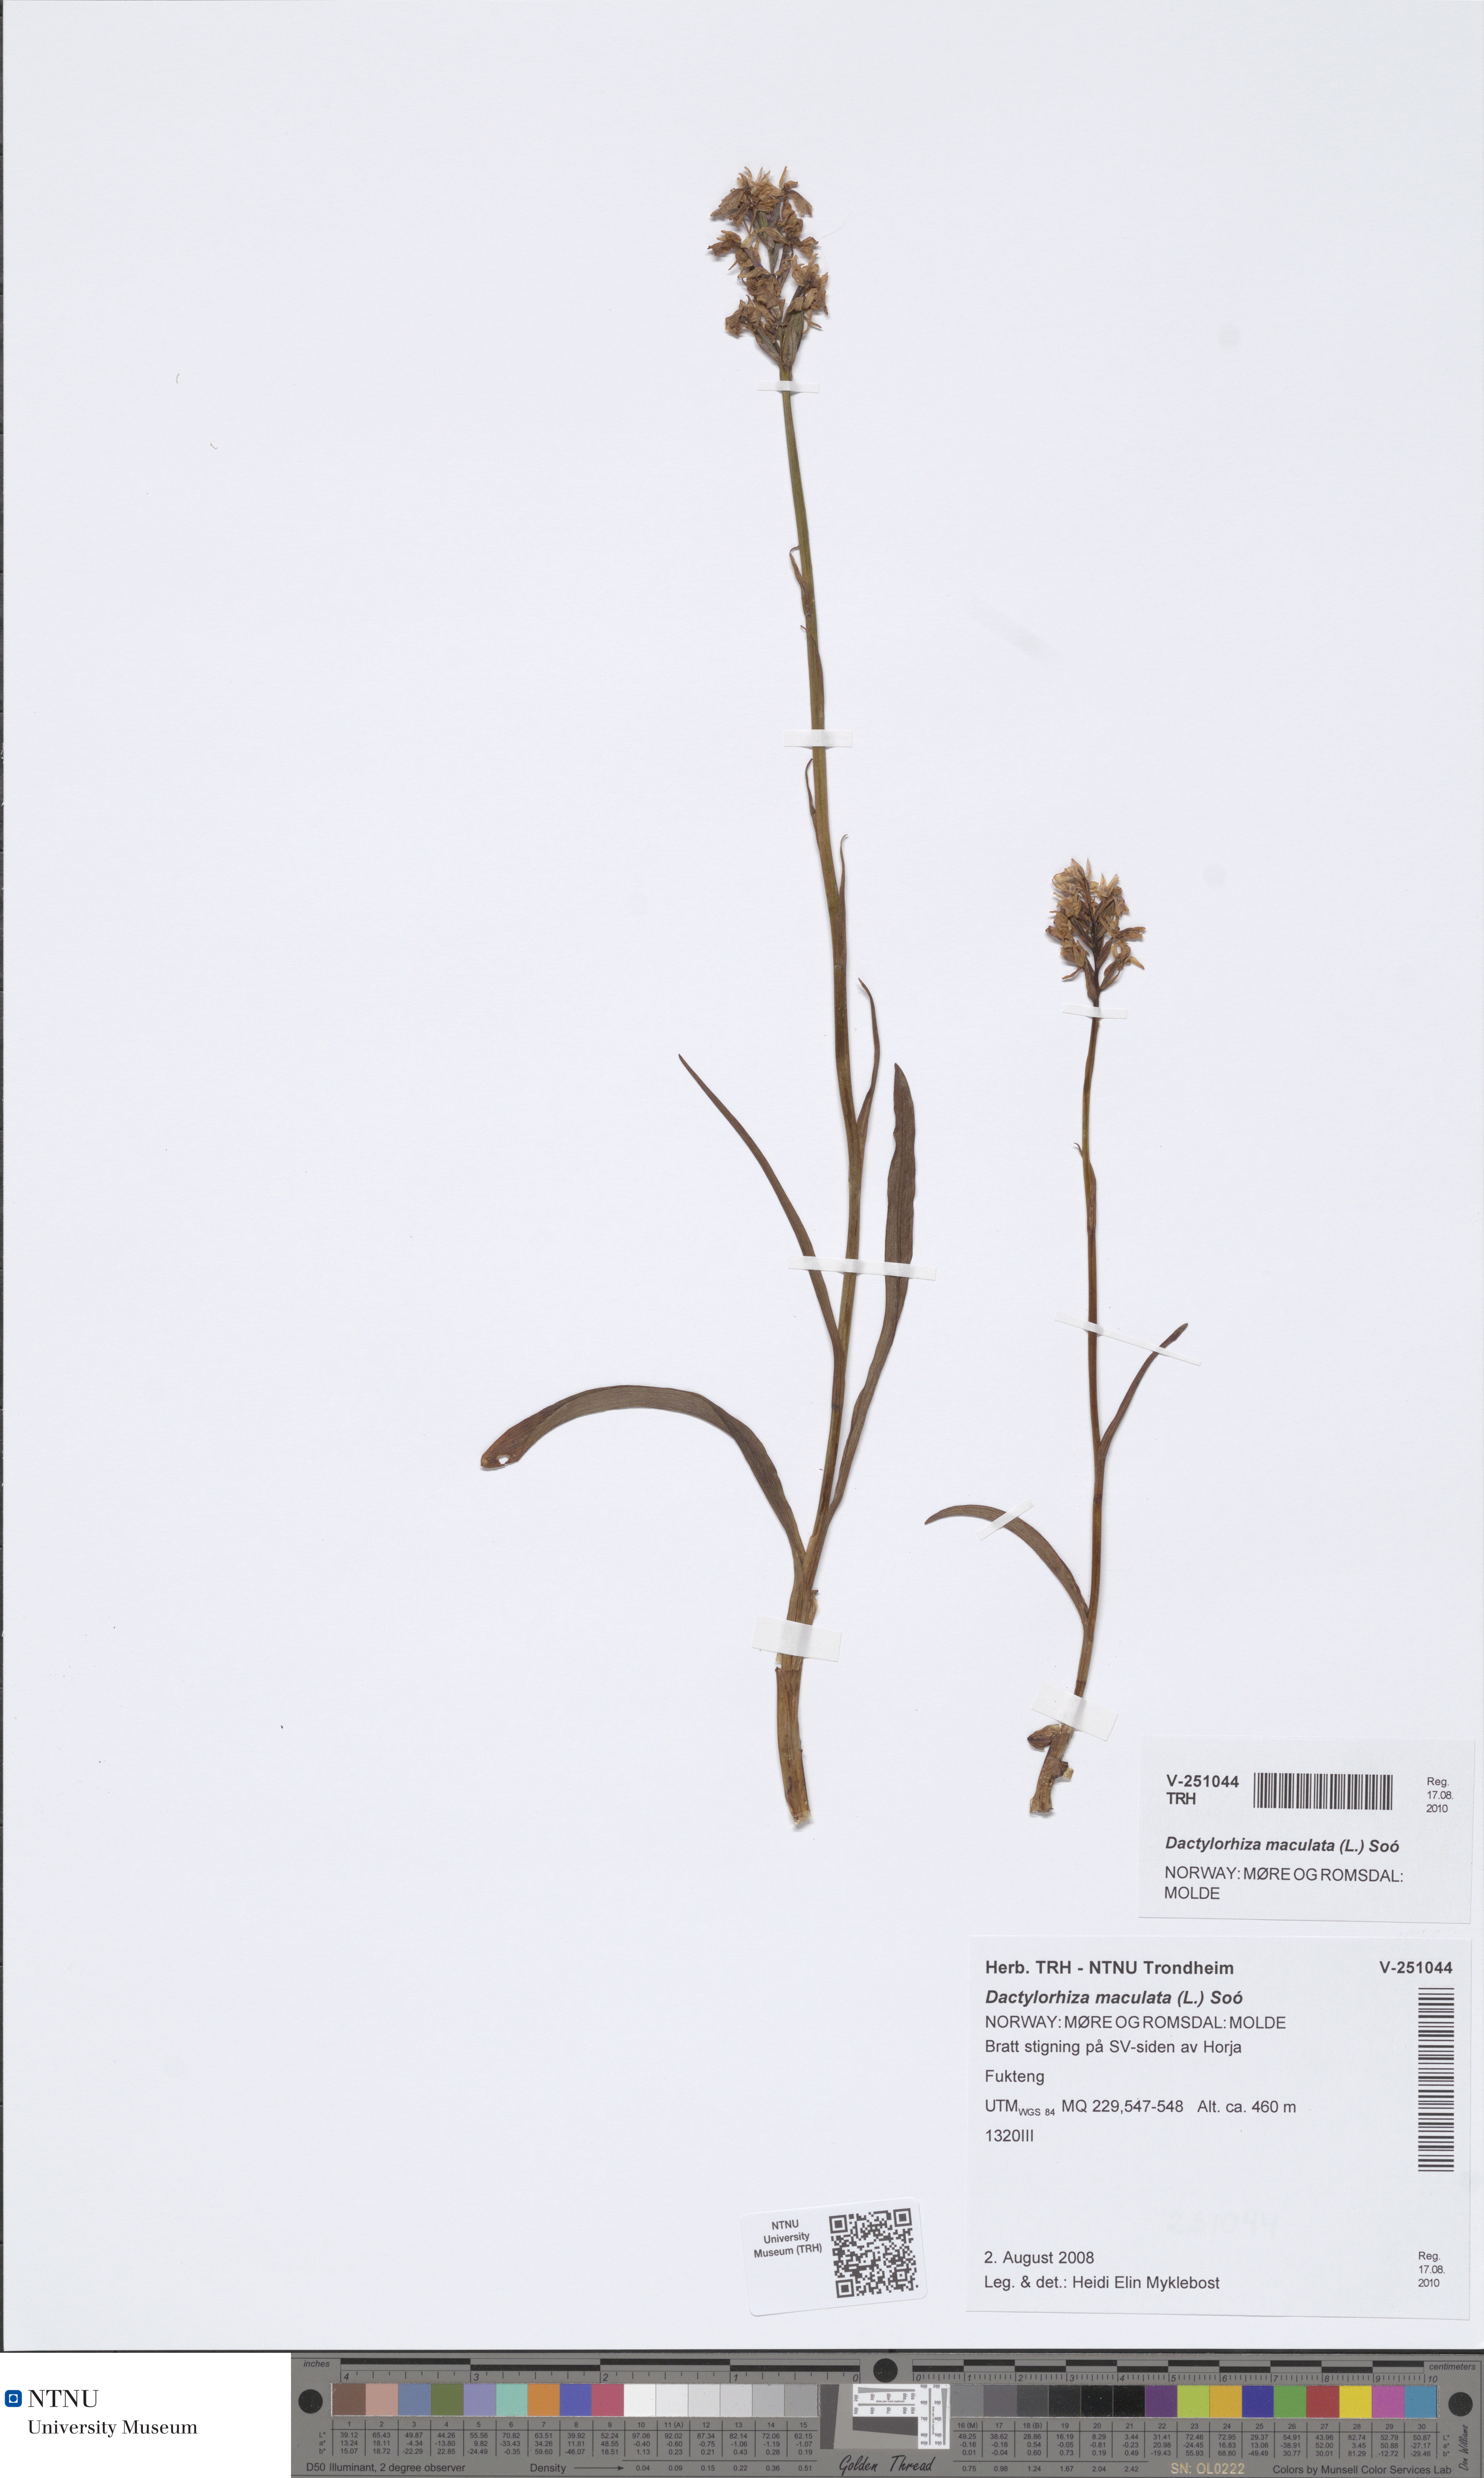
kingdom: Plantae
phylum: Tracheophyta
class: Liliopsida
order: Asparagales
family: Orchidaceae
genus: Dactylorhiza
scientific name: Dactylorhiza maculata
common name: Heath spotted-orchid
